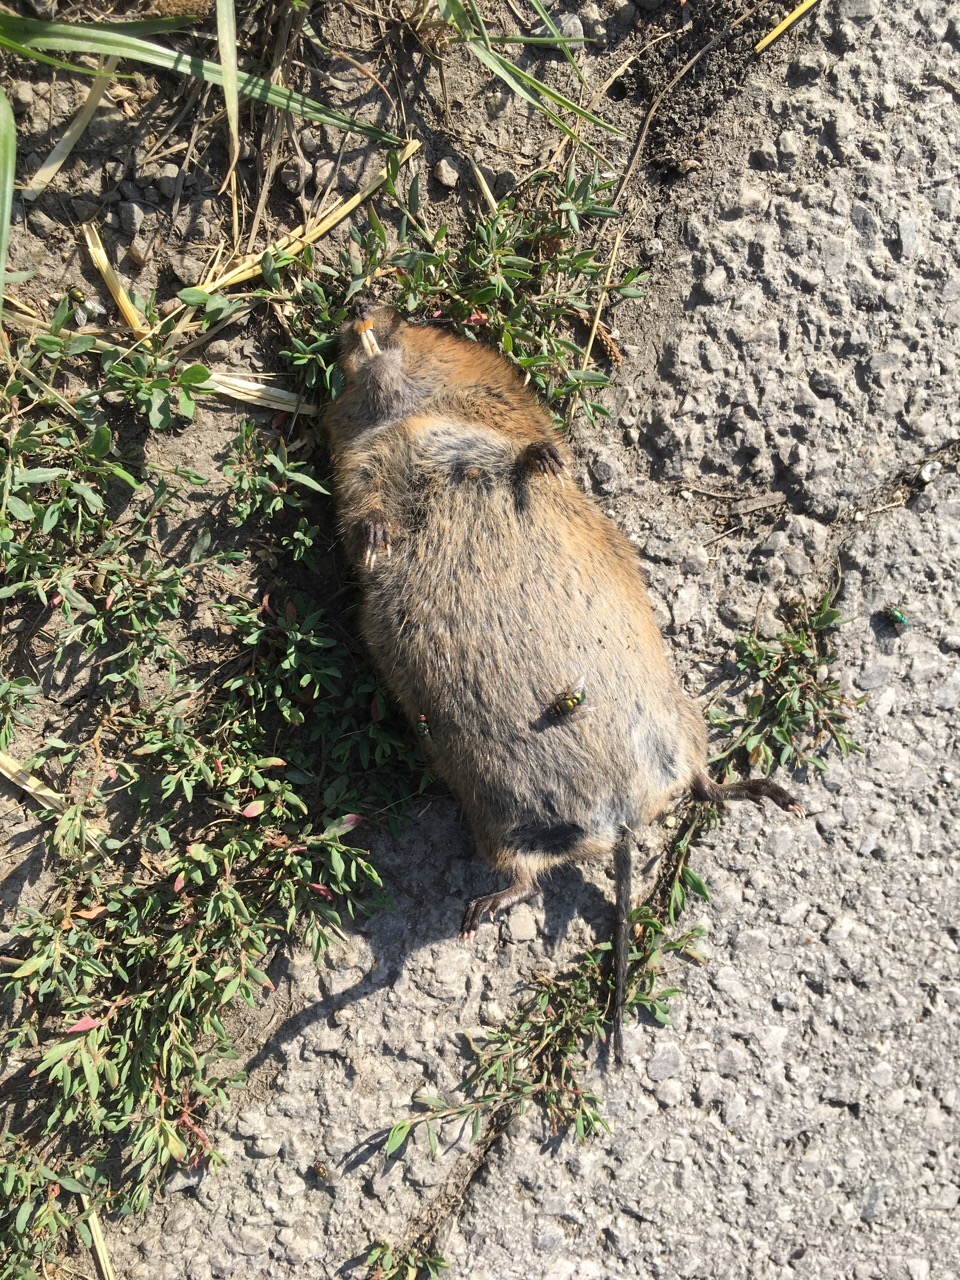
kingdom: Animalia
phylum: Chordata
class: Mammalia
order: Rodentia
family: Cricetidae
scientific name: Cricetidae
